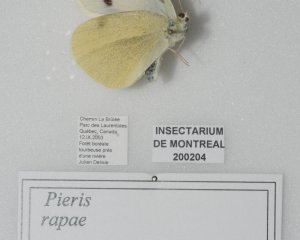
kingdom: Animalia
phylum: Arthropoda
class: Insecta
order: Lepidoptera
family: Pieridae
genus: Pieris
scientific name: Pieris rapae
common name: Cabbage White
